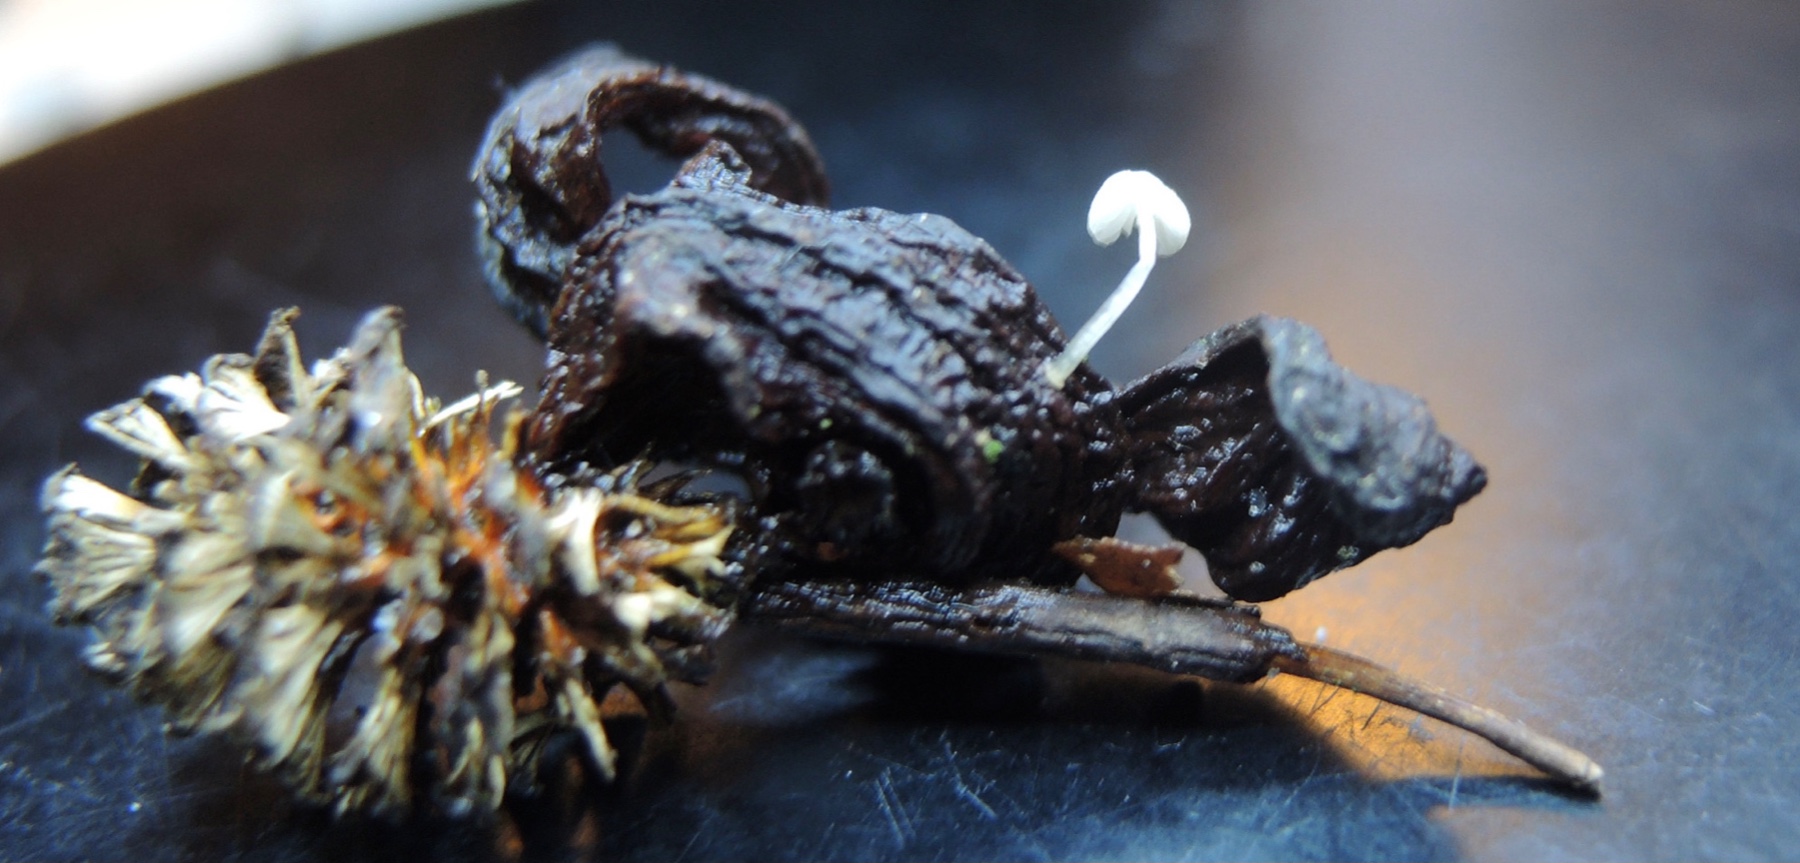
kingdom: Fungi
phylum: Basidiomycota
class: Agaricomycetes
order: Agaricales
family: Mycenaceae
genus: Mycena
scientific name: Mycena tenerrima
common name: pudret huesvamp
